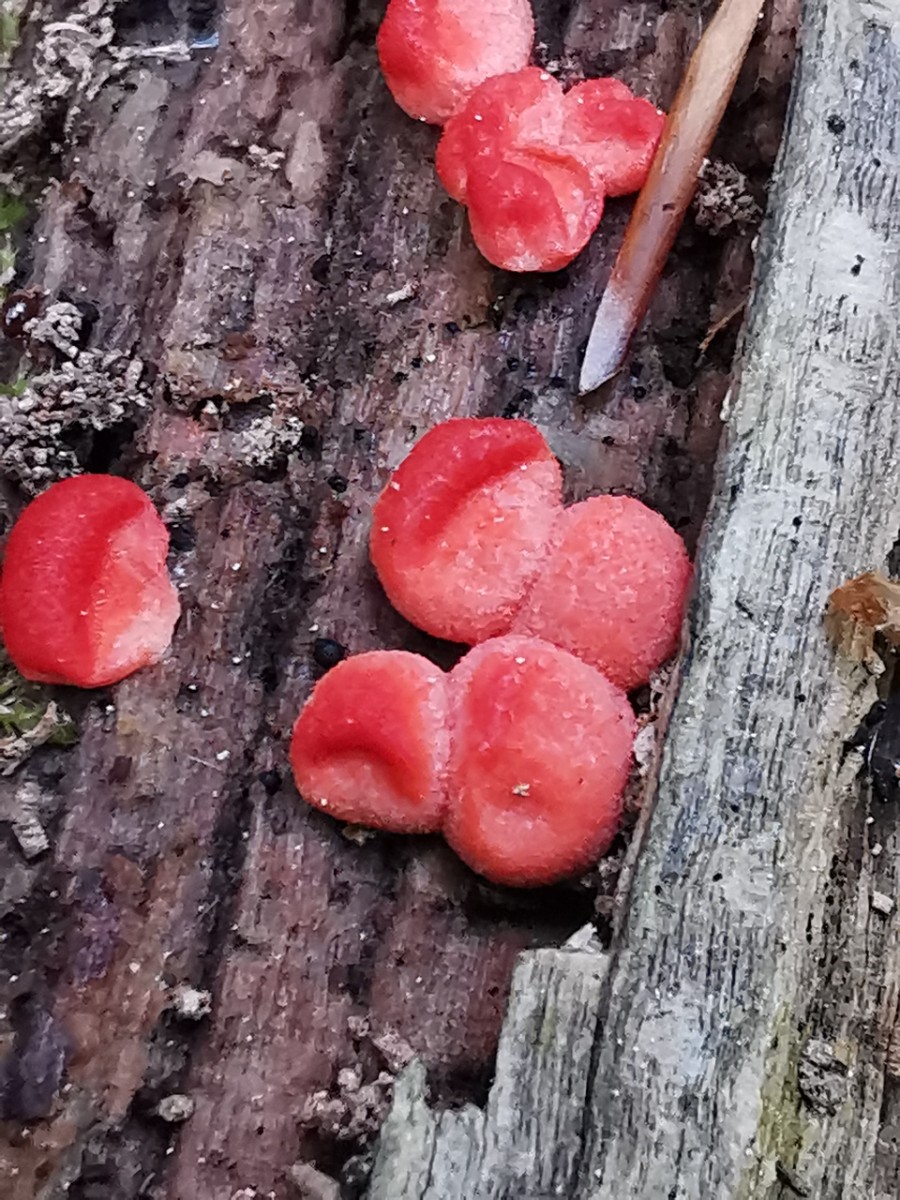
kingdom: Protozoa
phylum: Mycetozoa
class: Myxomycetes
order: Cribrariales
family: Tubiferaceae
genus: Lycogala
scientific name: Lycogala epidendrum
